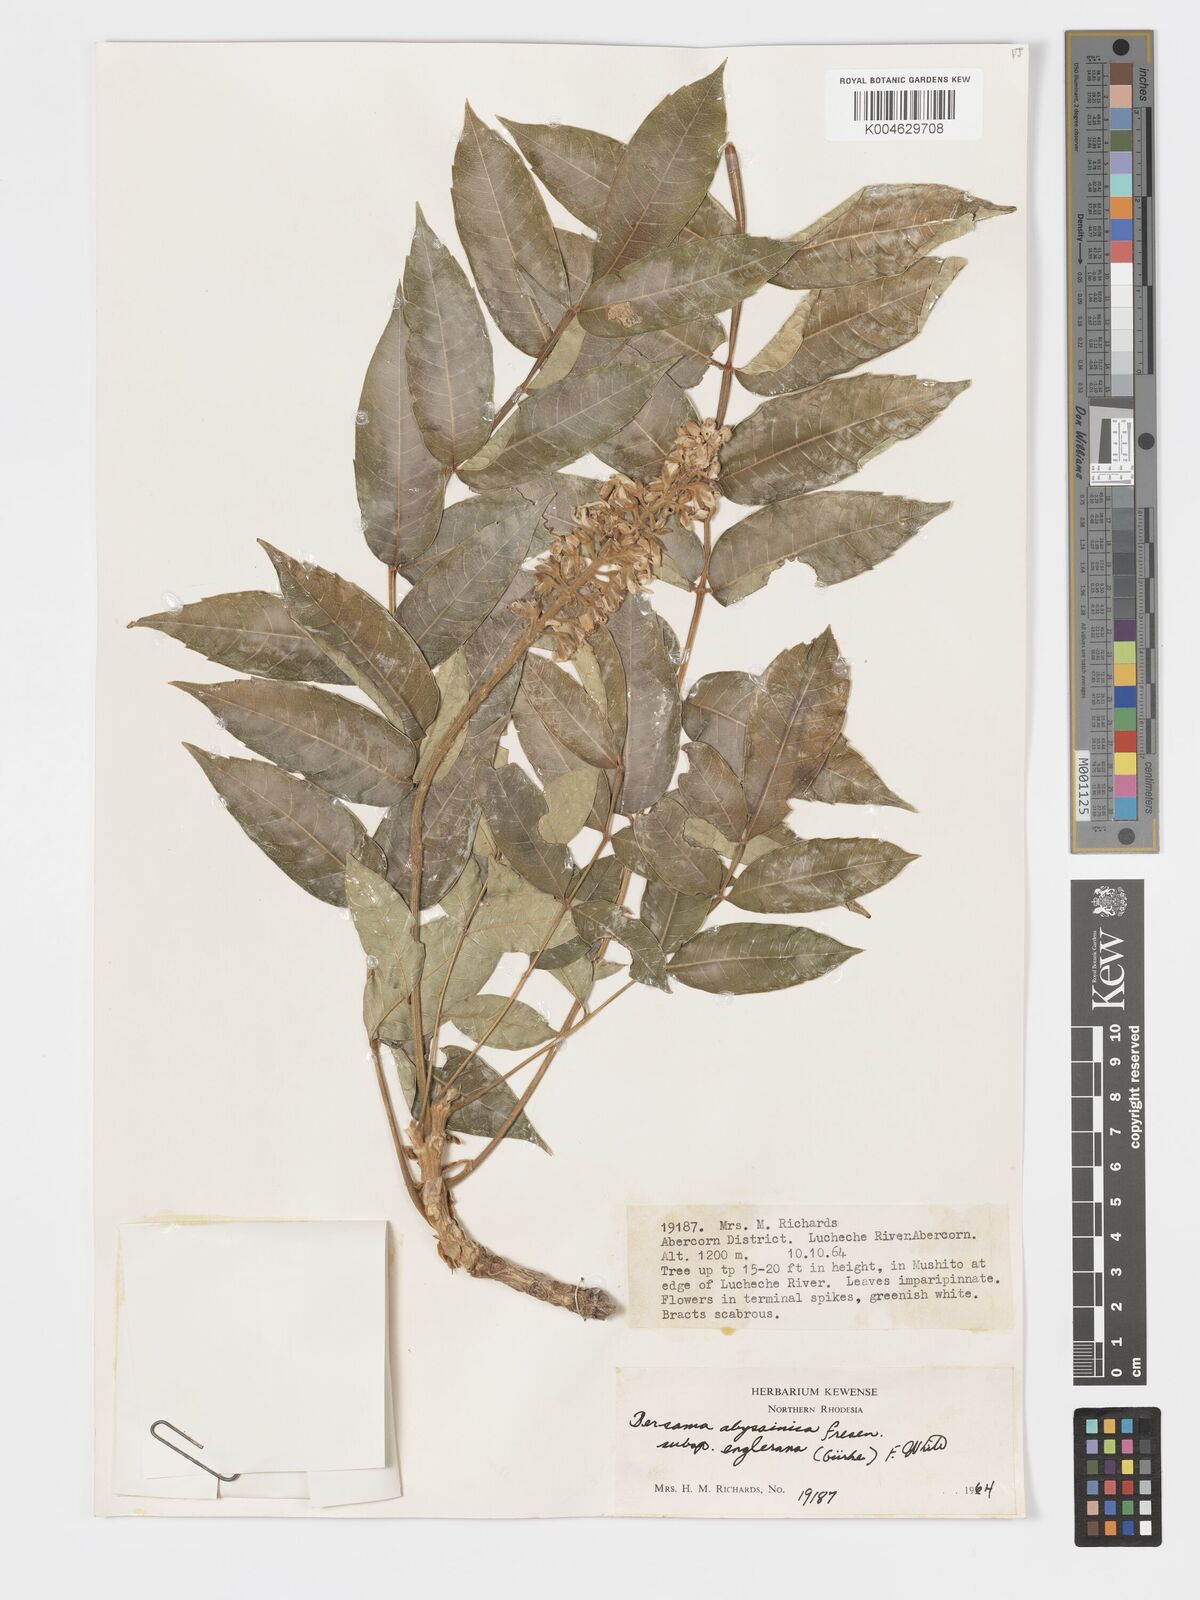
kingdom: Plantae
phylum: Tracheophyta
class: Magnoliopsida
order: Geraniales
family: Melianthaceae
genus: Bersama
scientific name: Bersama abyssinica
